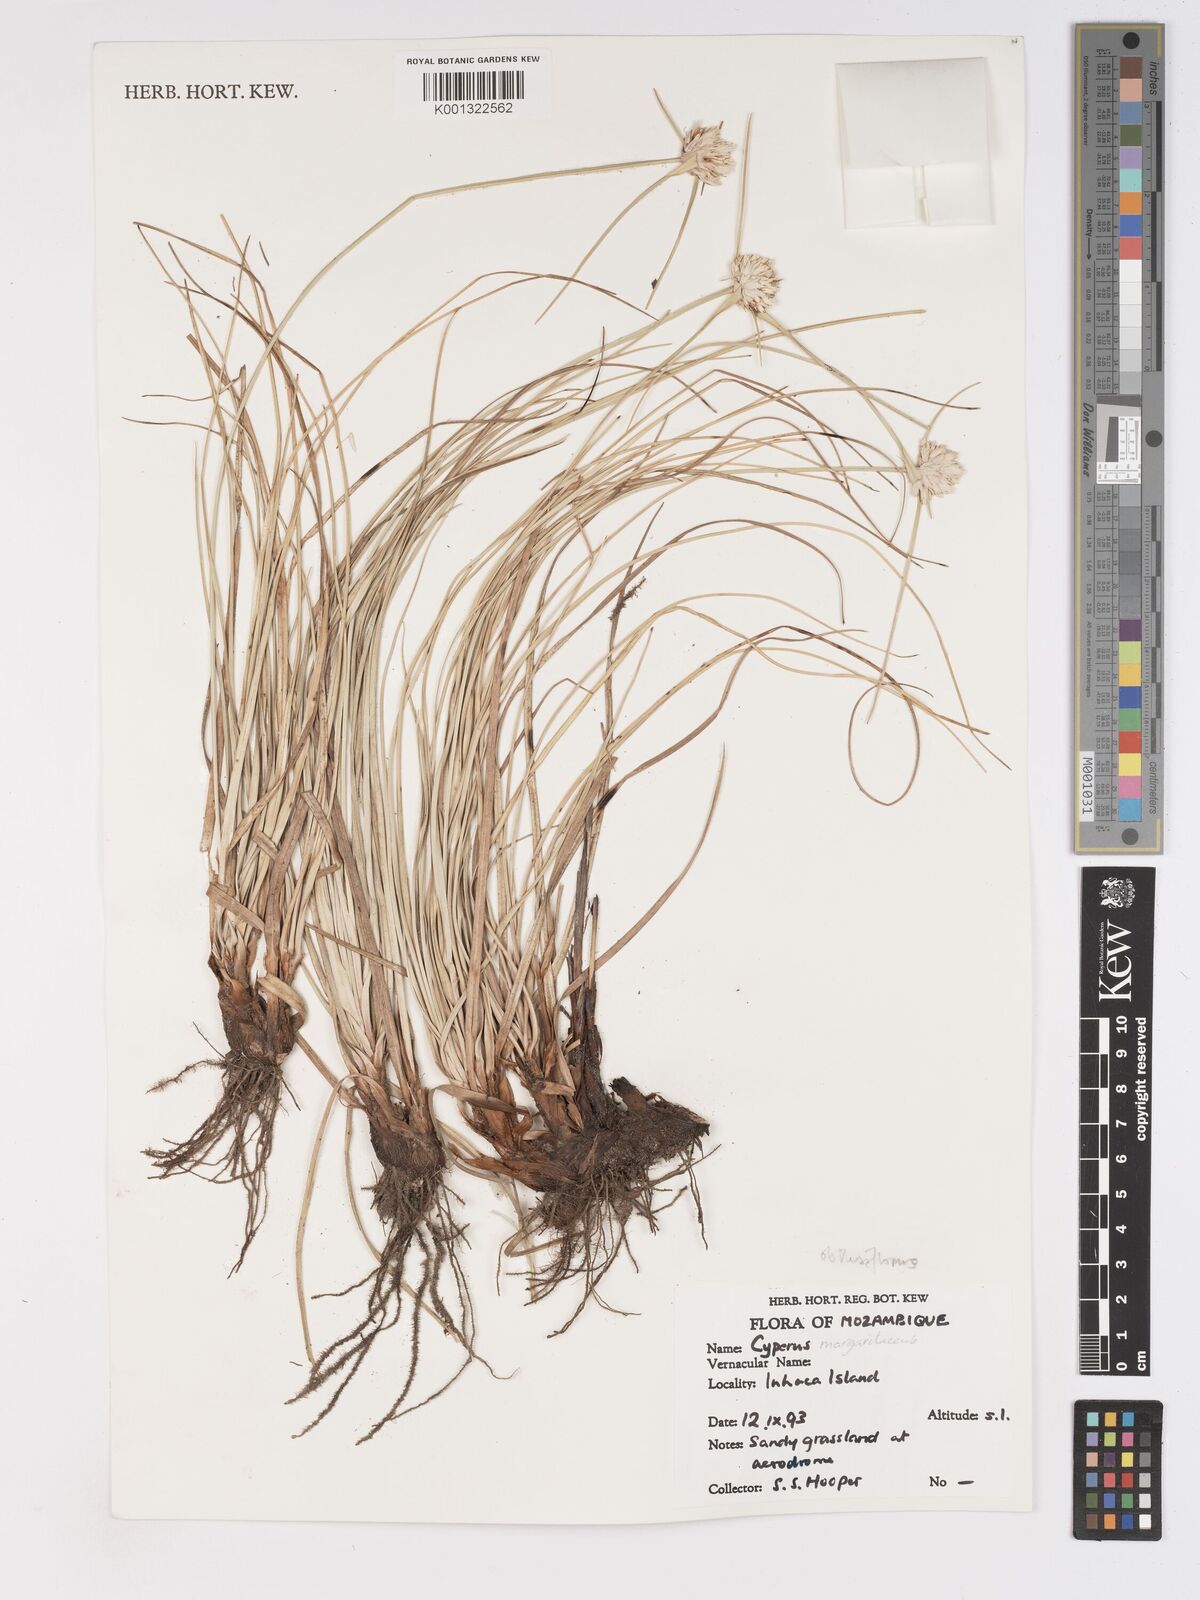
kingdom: Plantae
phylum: Tracheophyta
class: Liliopsida
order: Poales
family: Cyperaceae
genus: Cyperus
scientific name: Cyperus niveus
